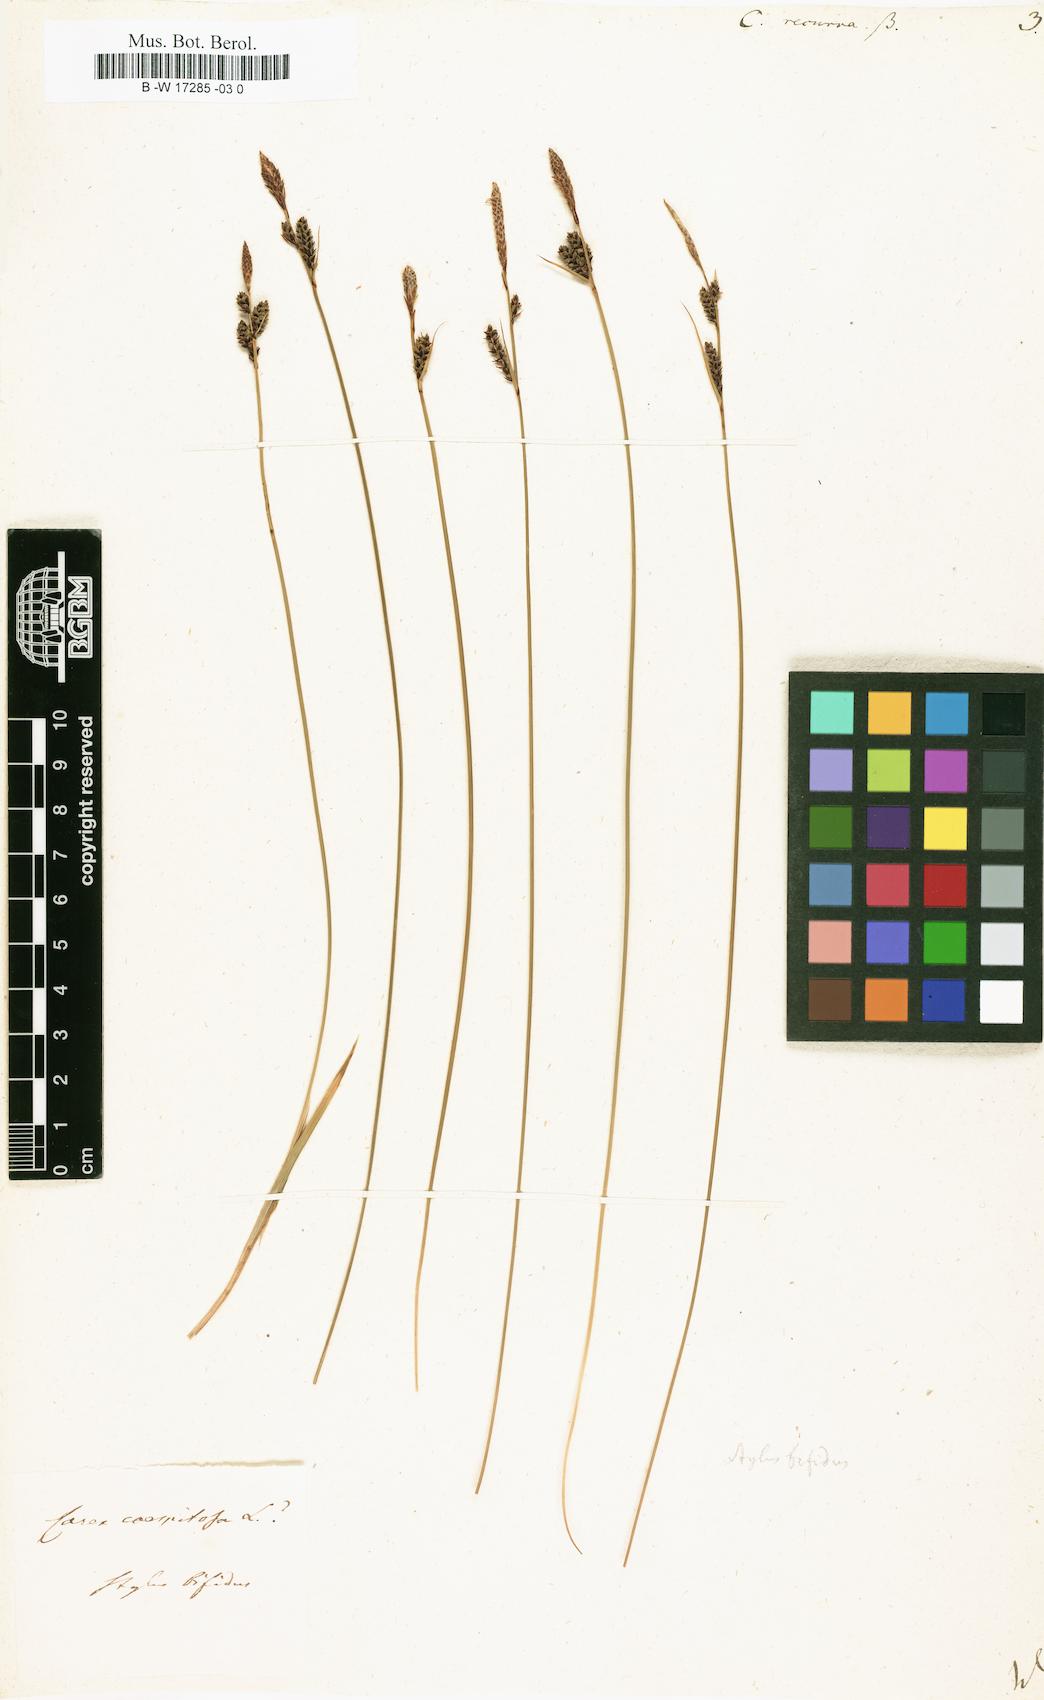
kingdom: Plantae
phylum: Tracheophyta
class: Liliopsida
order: Poales
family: Cyperaceae
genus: Carex
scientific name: Carex
